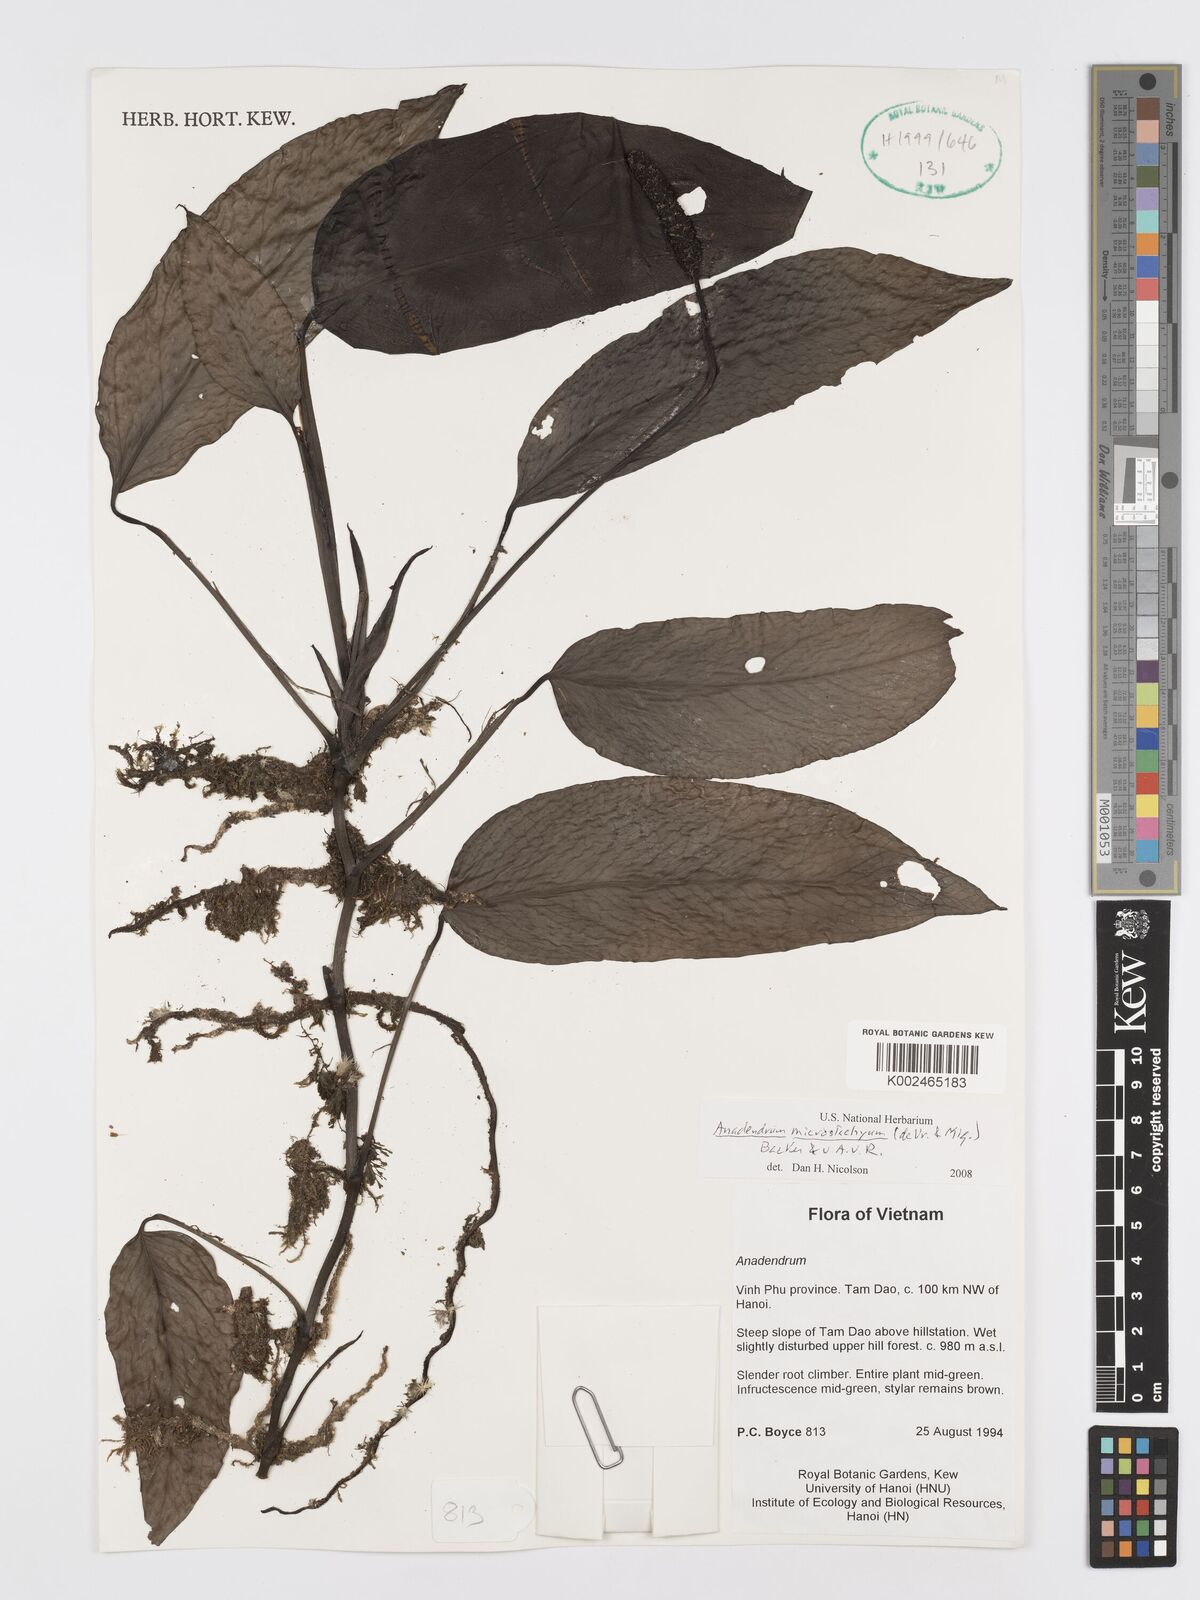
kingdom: Plantae
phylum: Tracheophyta
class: Liliopsida
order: Alismatales
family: Araceae
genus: Anadendrum
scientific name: Anadendrum microstachyum
